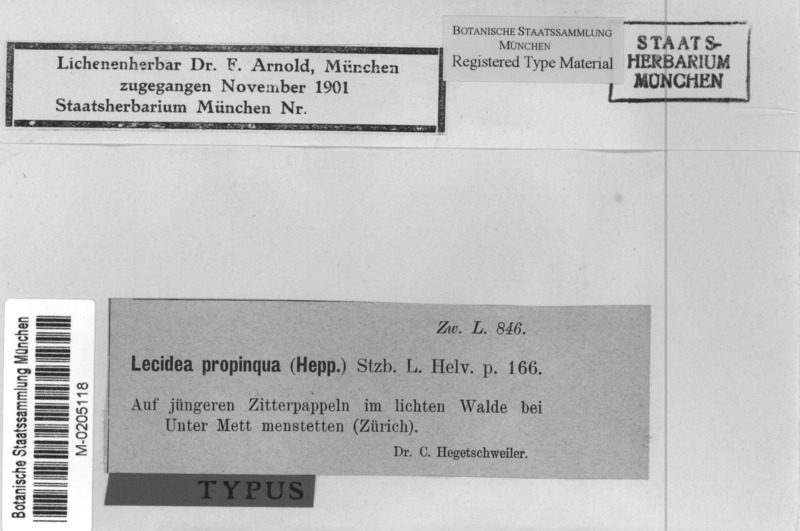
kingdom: Fungi
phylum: Ascomycota
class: Lecanoromycetes
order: Lecanorales
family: Ramalinaceae
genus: Bacidia
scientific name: Bacidia biatorina
